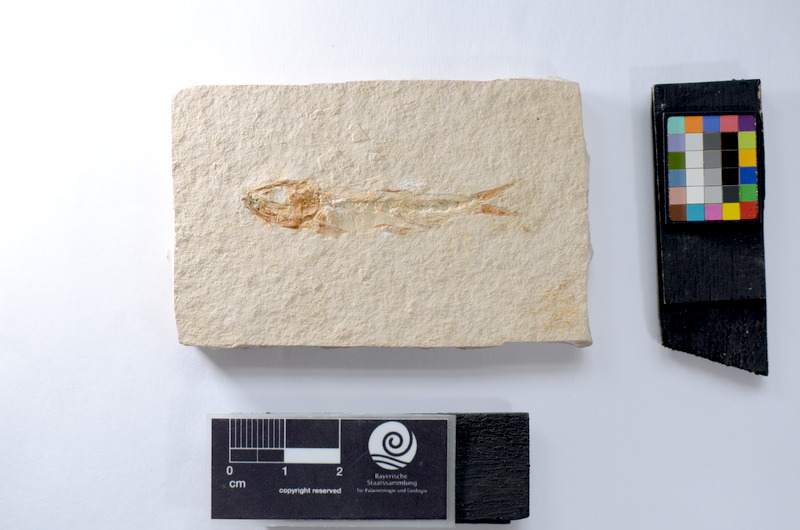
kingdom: Animalia
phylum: Chordata
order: Salmoniformes
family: Orthogonikleithridae
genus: Leptolepides
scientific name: Leptolepides sprattiformis
